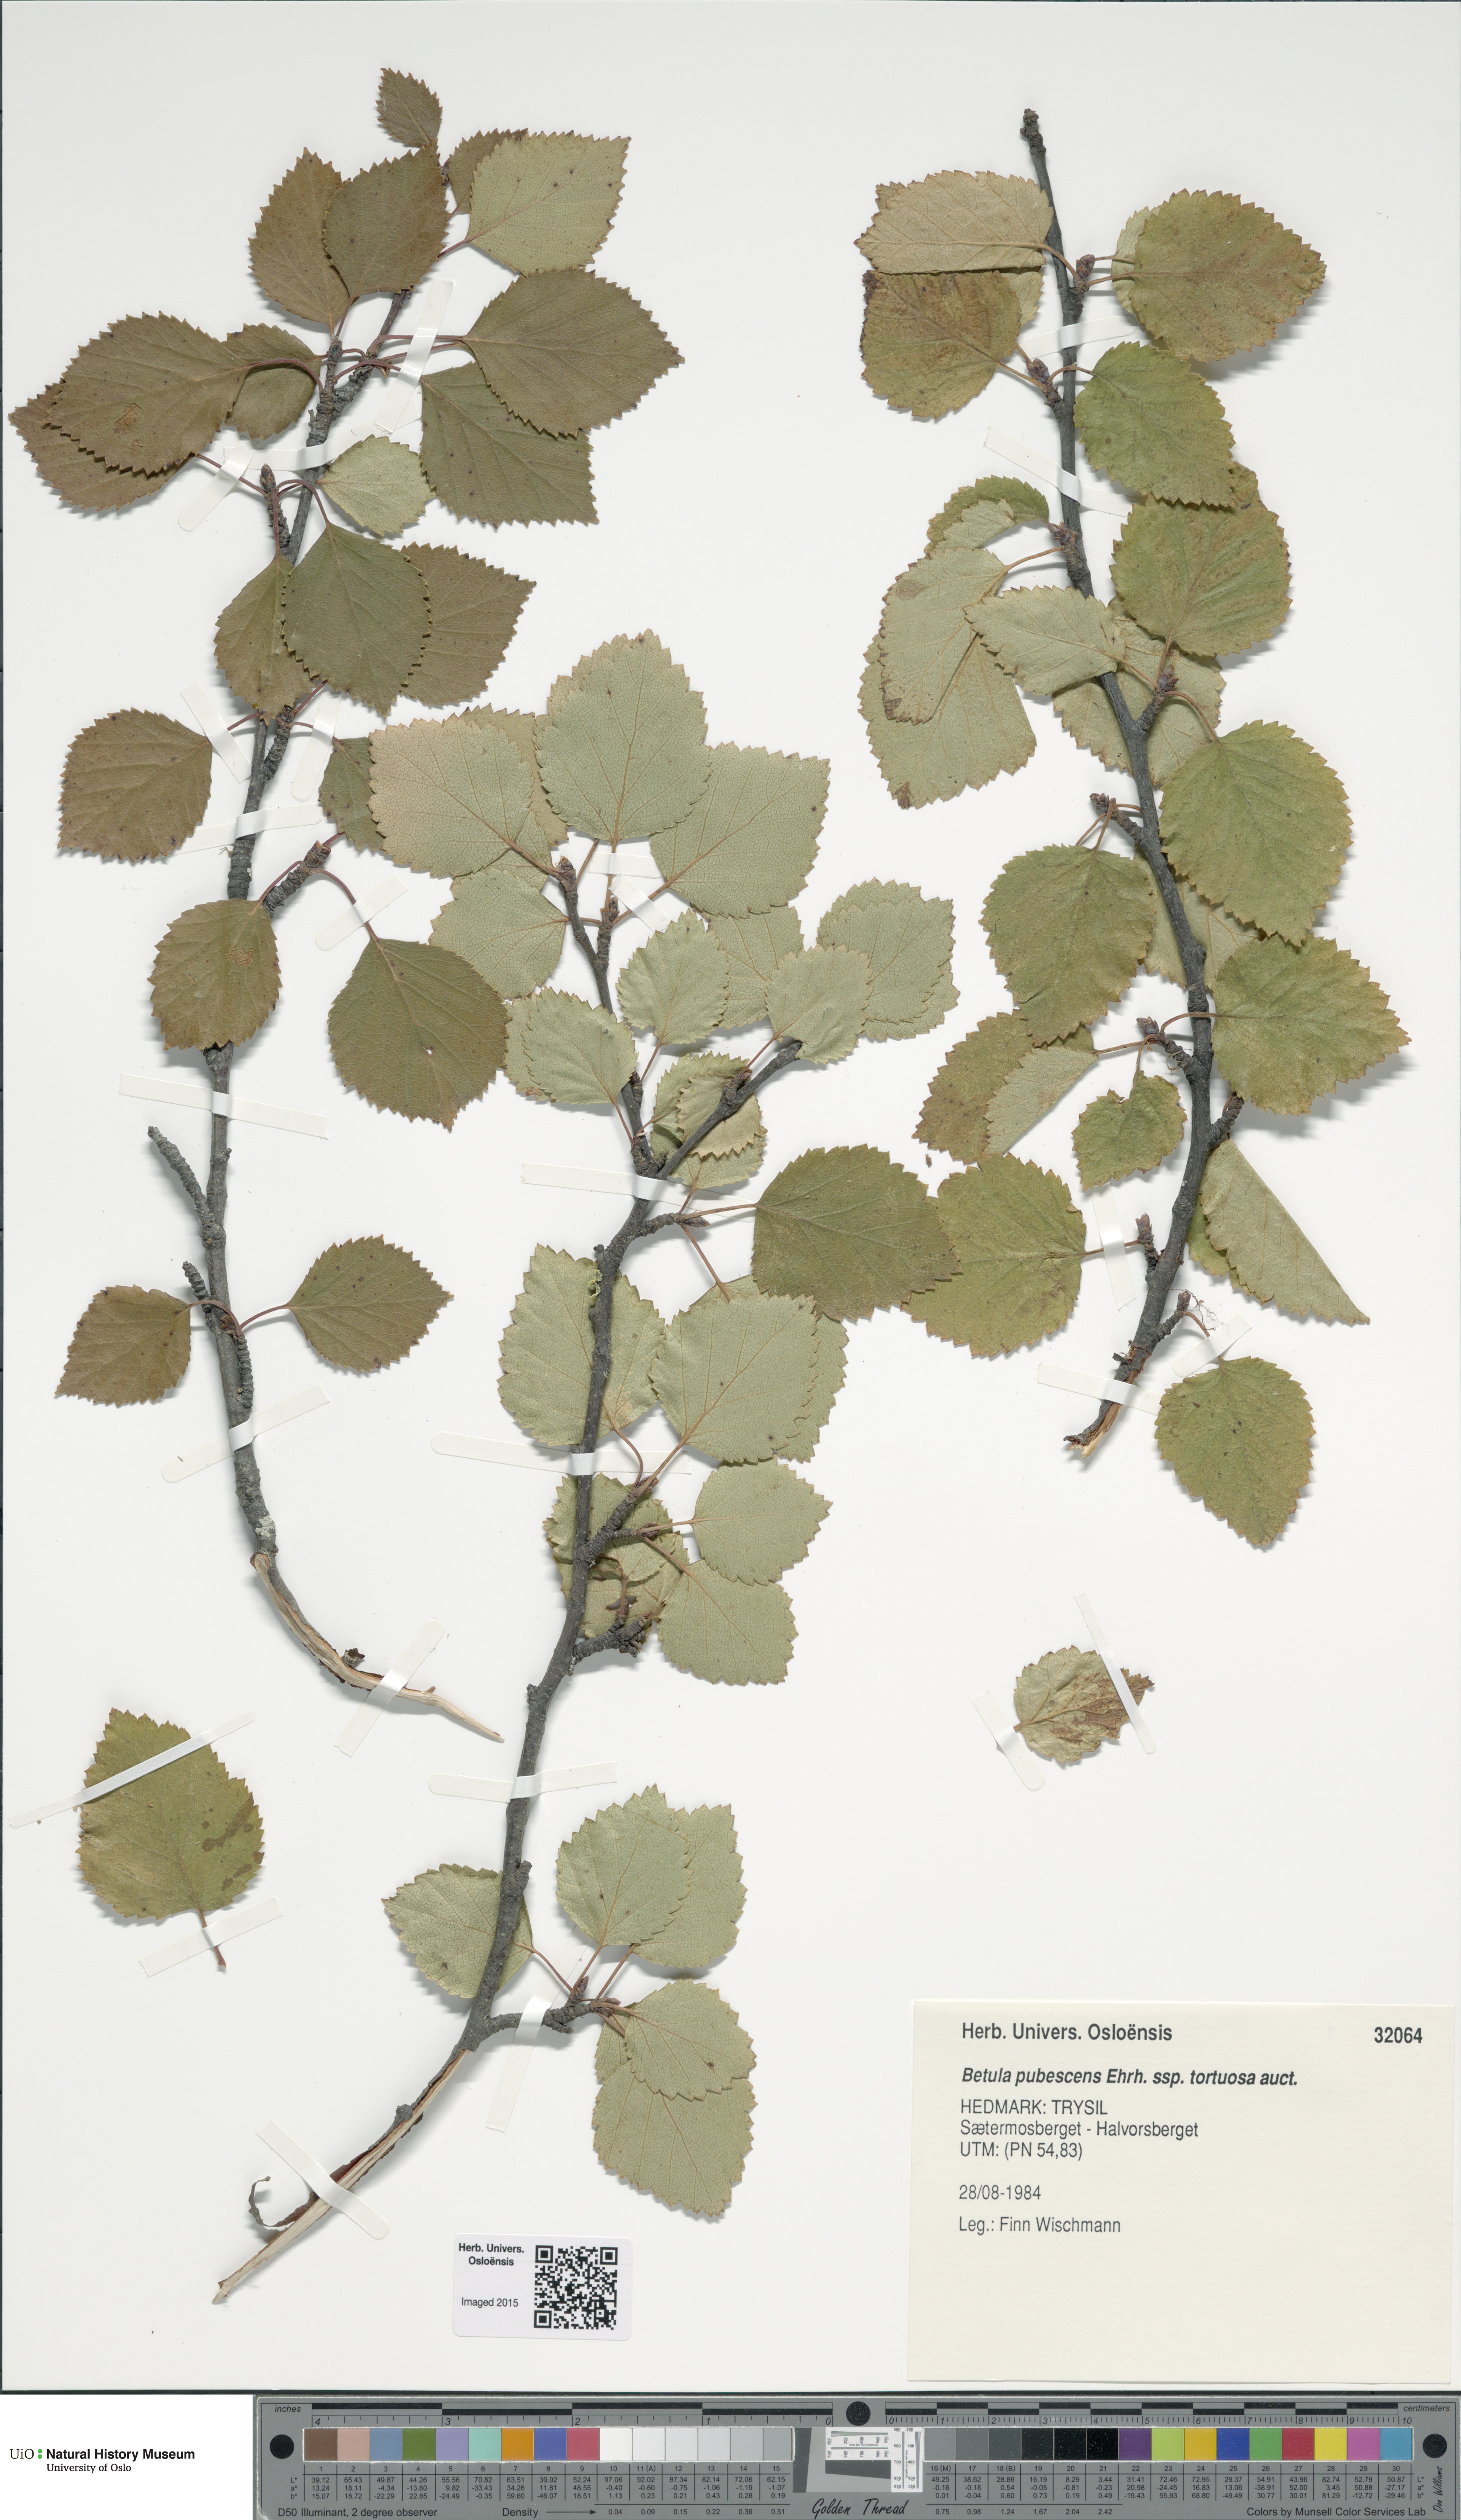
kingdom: Plantae
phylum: Tracheophyta
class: Magnoliopsida
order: Fagales
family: Betulaceae
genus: Betula
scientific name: Betula pubescens
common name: Downy birch
